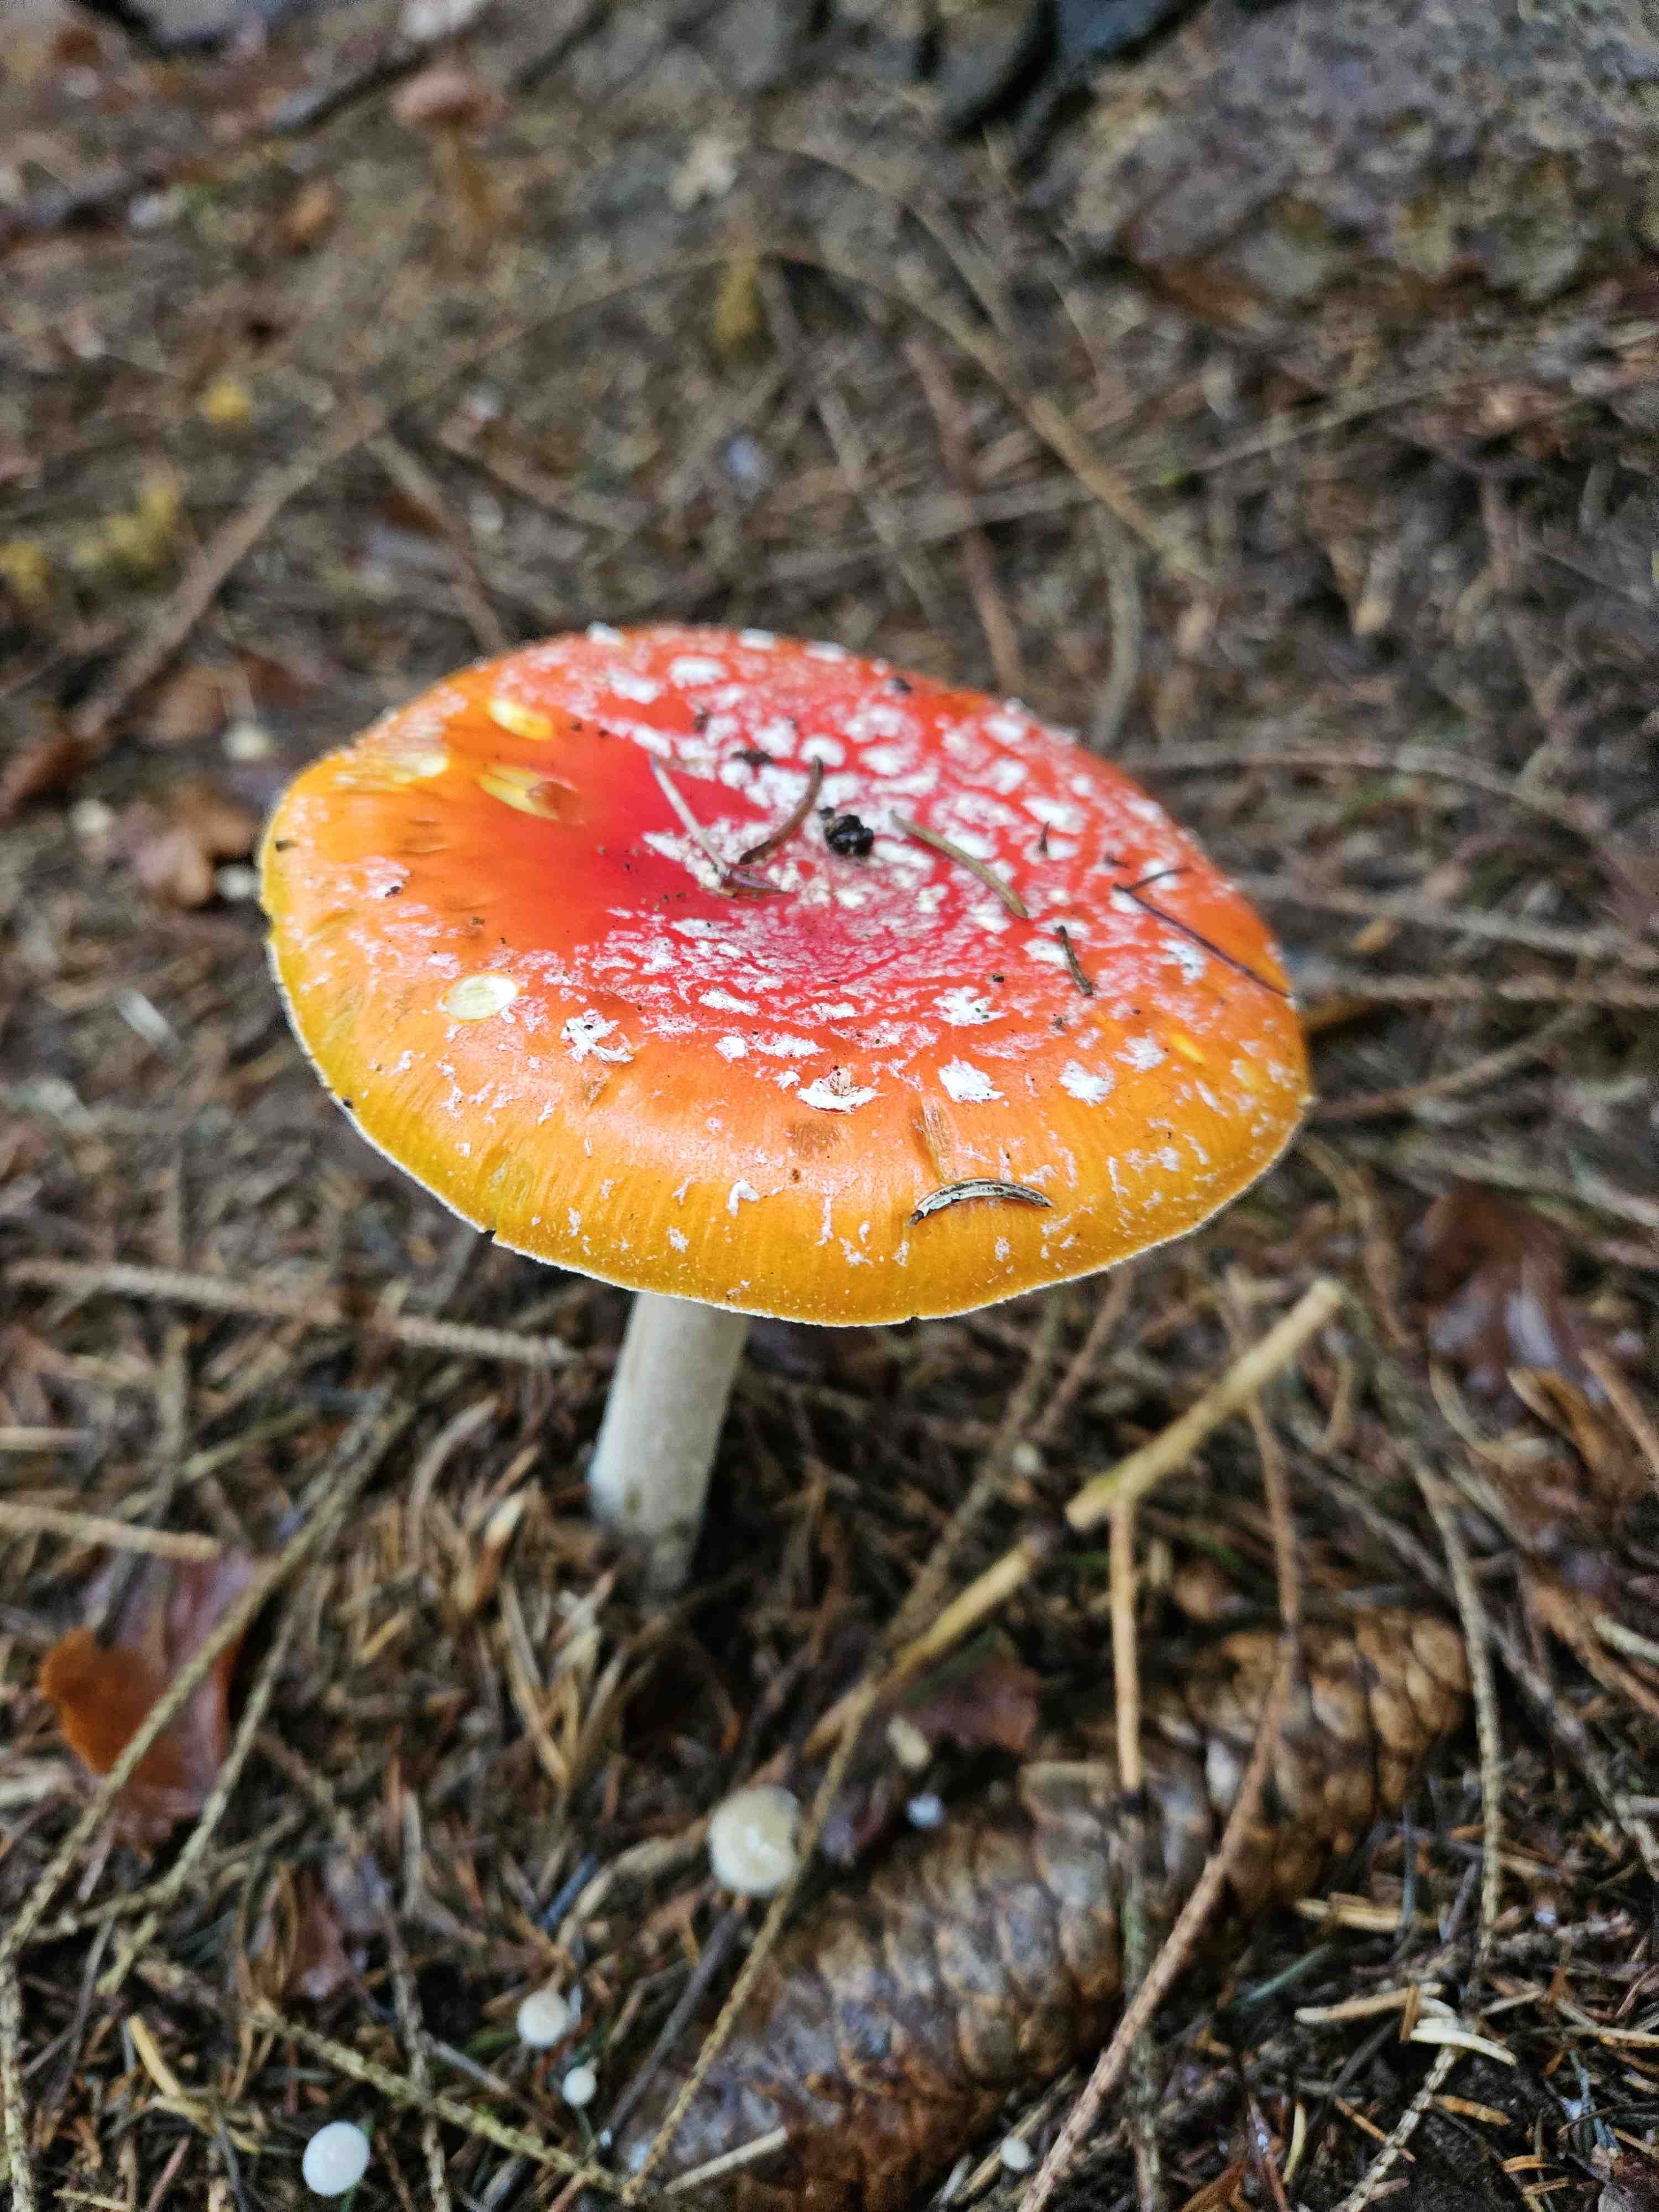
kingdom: Fungi
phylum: Basidiomycota
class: Agaricomycetes
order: Agaricales
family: Amanitaceae
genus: Amanita
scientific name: Amanita muscaria
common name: rød fluesvamp
